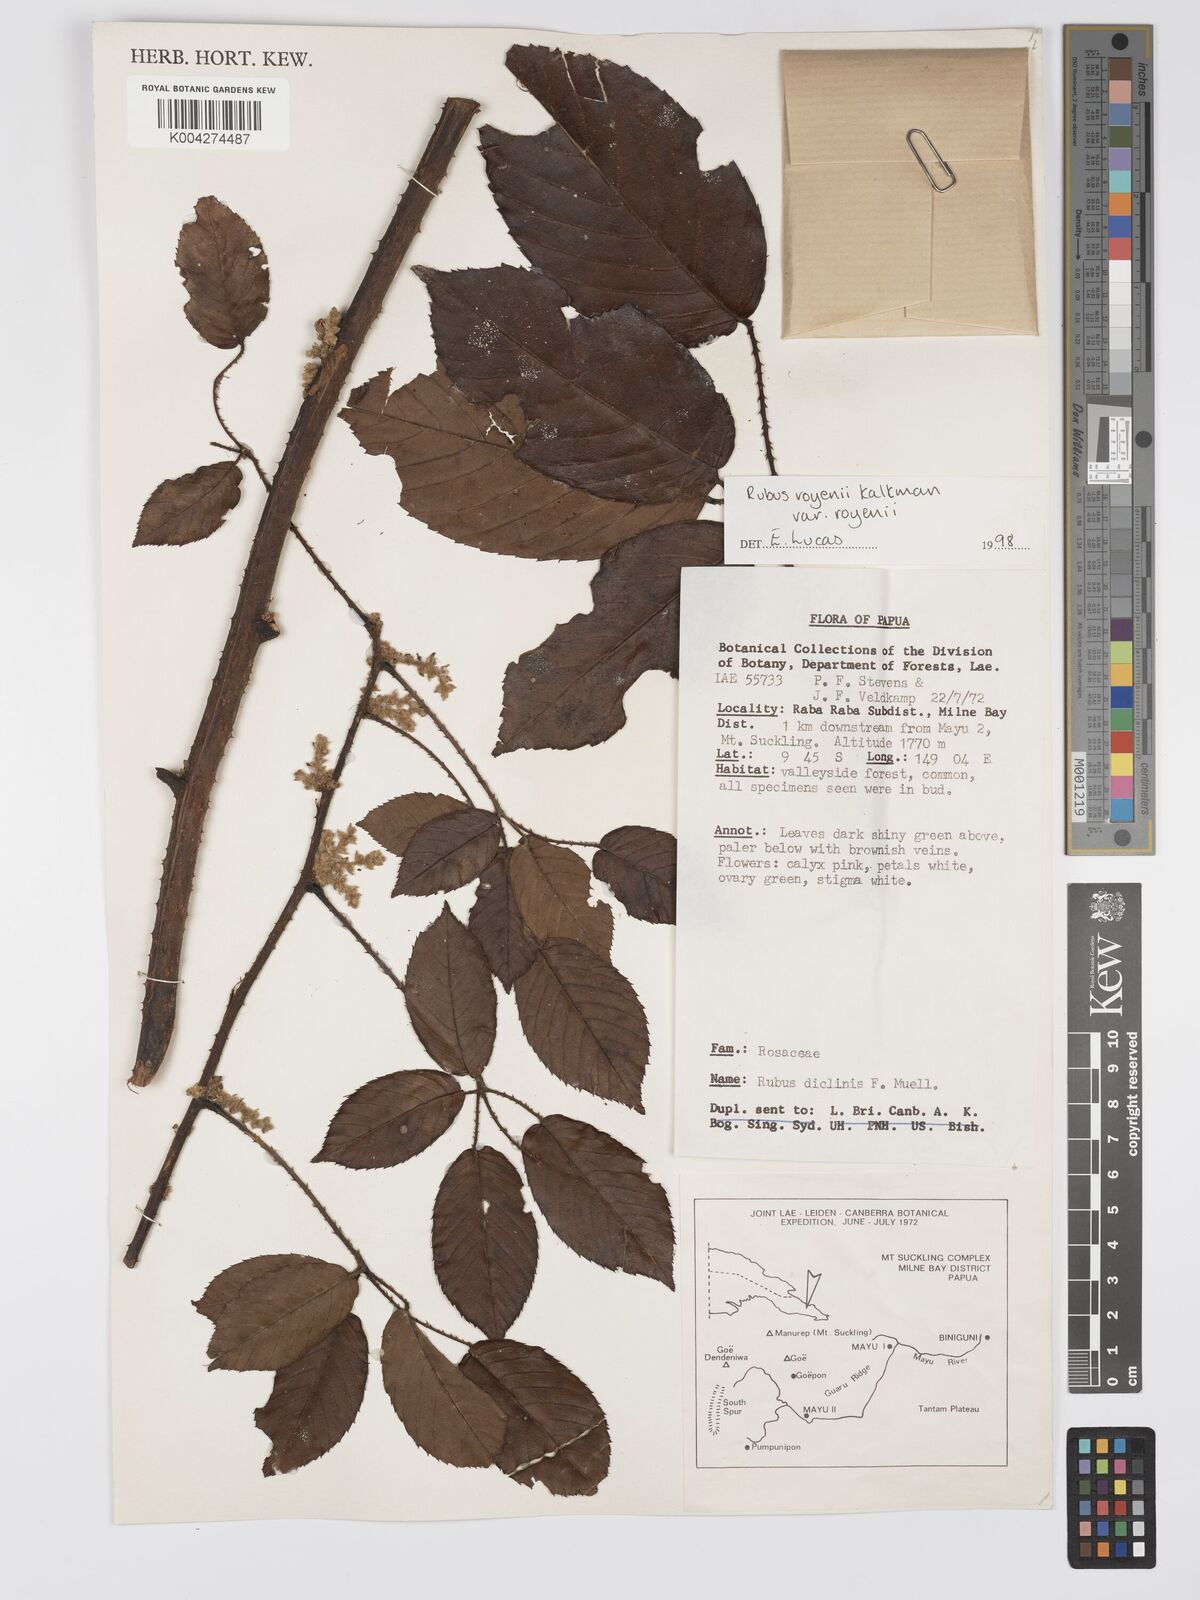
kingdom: Plantae
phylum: Tracheophyta
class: Magnoliopsida
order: Rosales
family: Rosaceae
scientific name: Rosaceae
